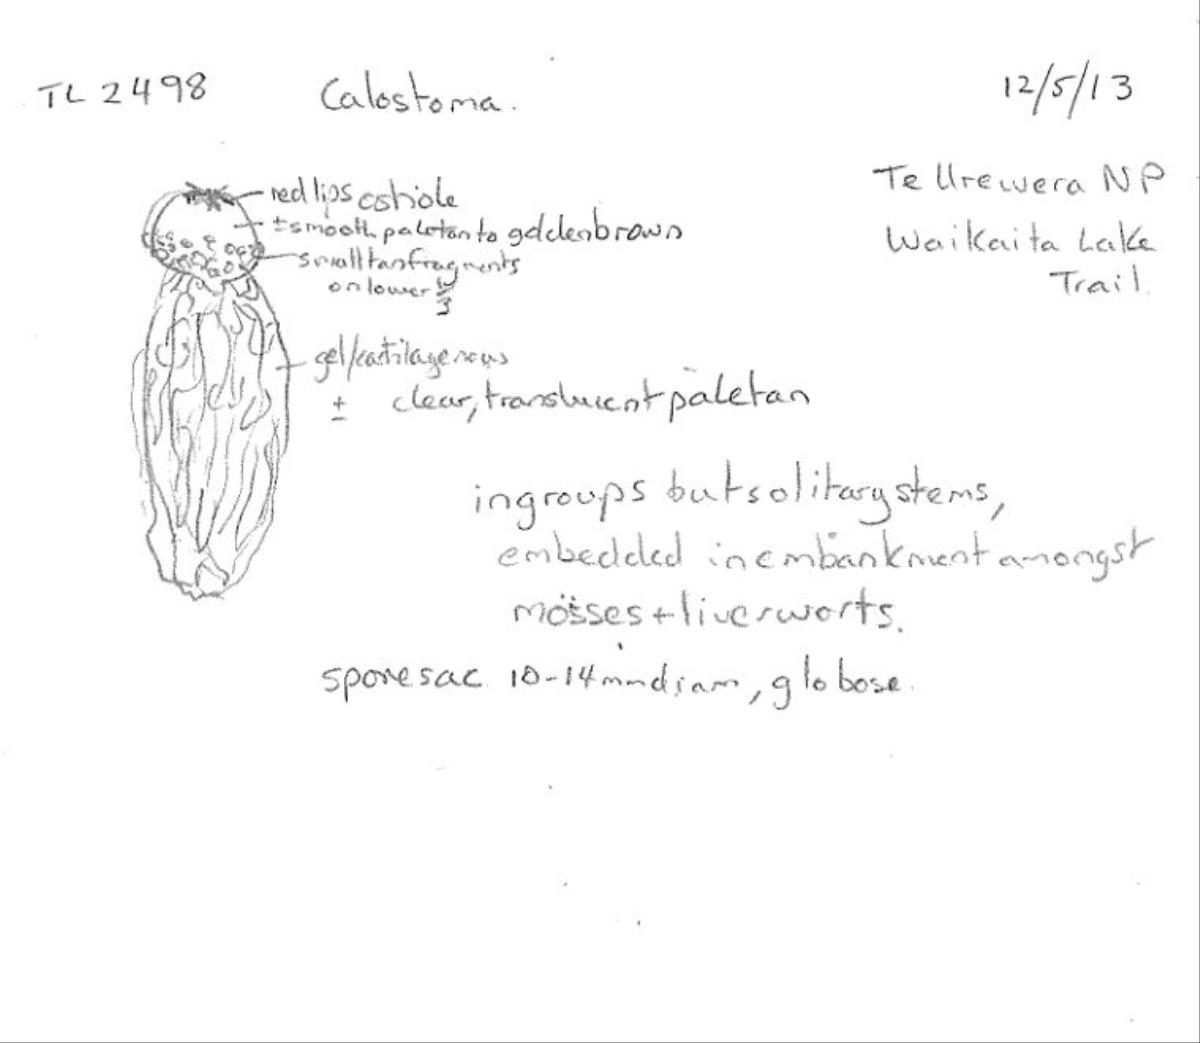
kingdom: Fungi
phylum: Basidiomycota
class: Agaricomycetes
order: Boletales
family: Calostomataceae
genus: Calostoma
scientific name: Calostoma
